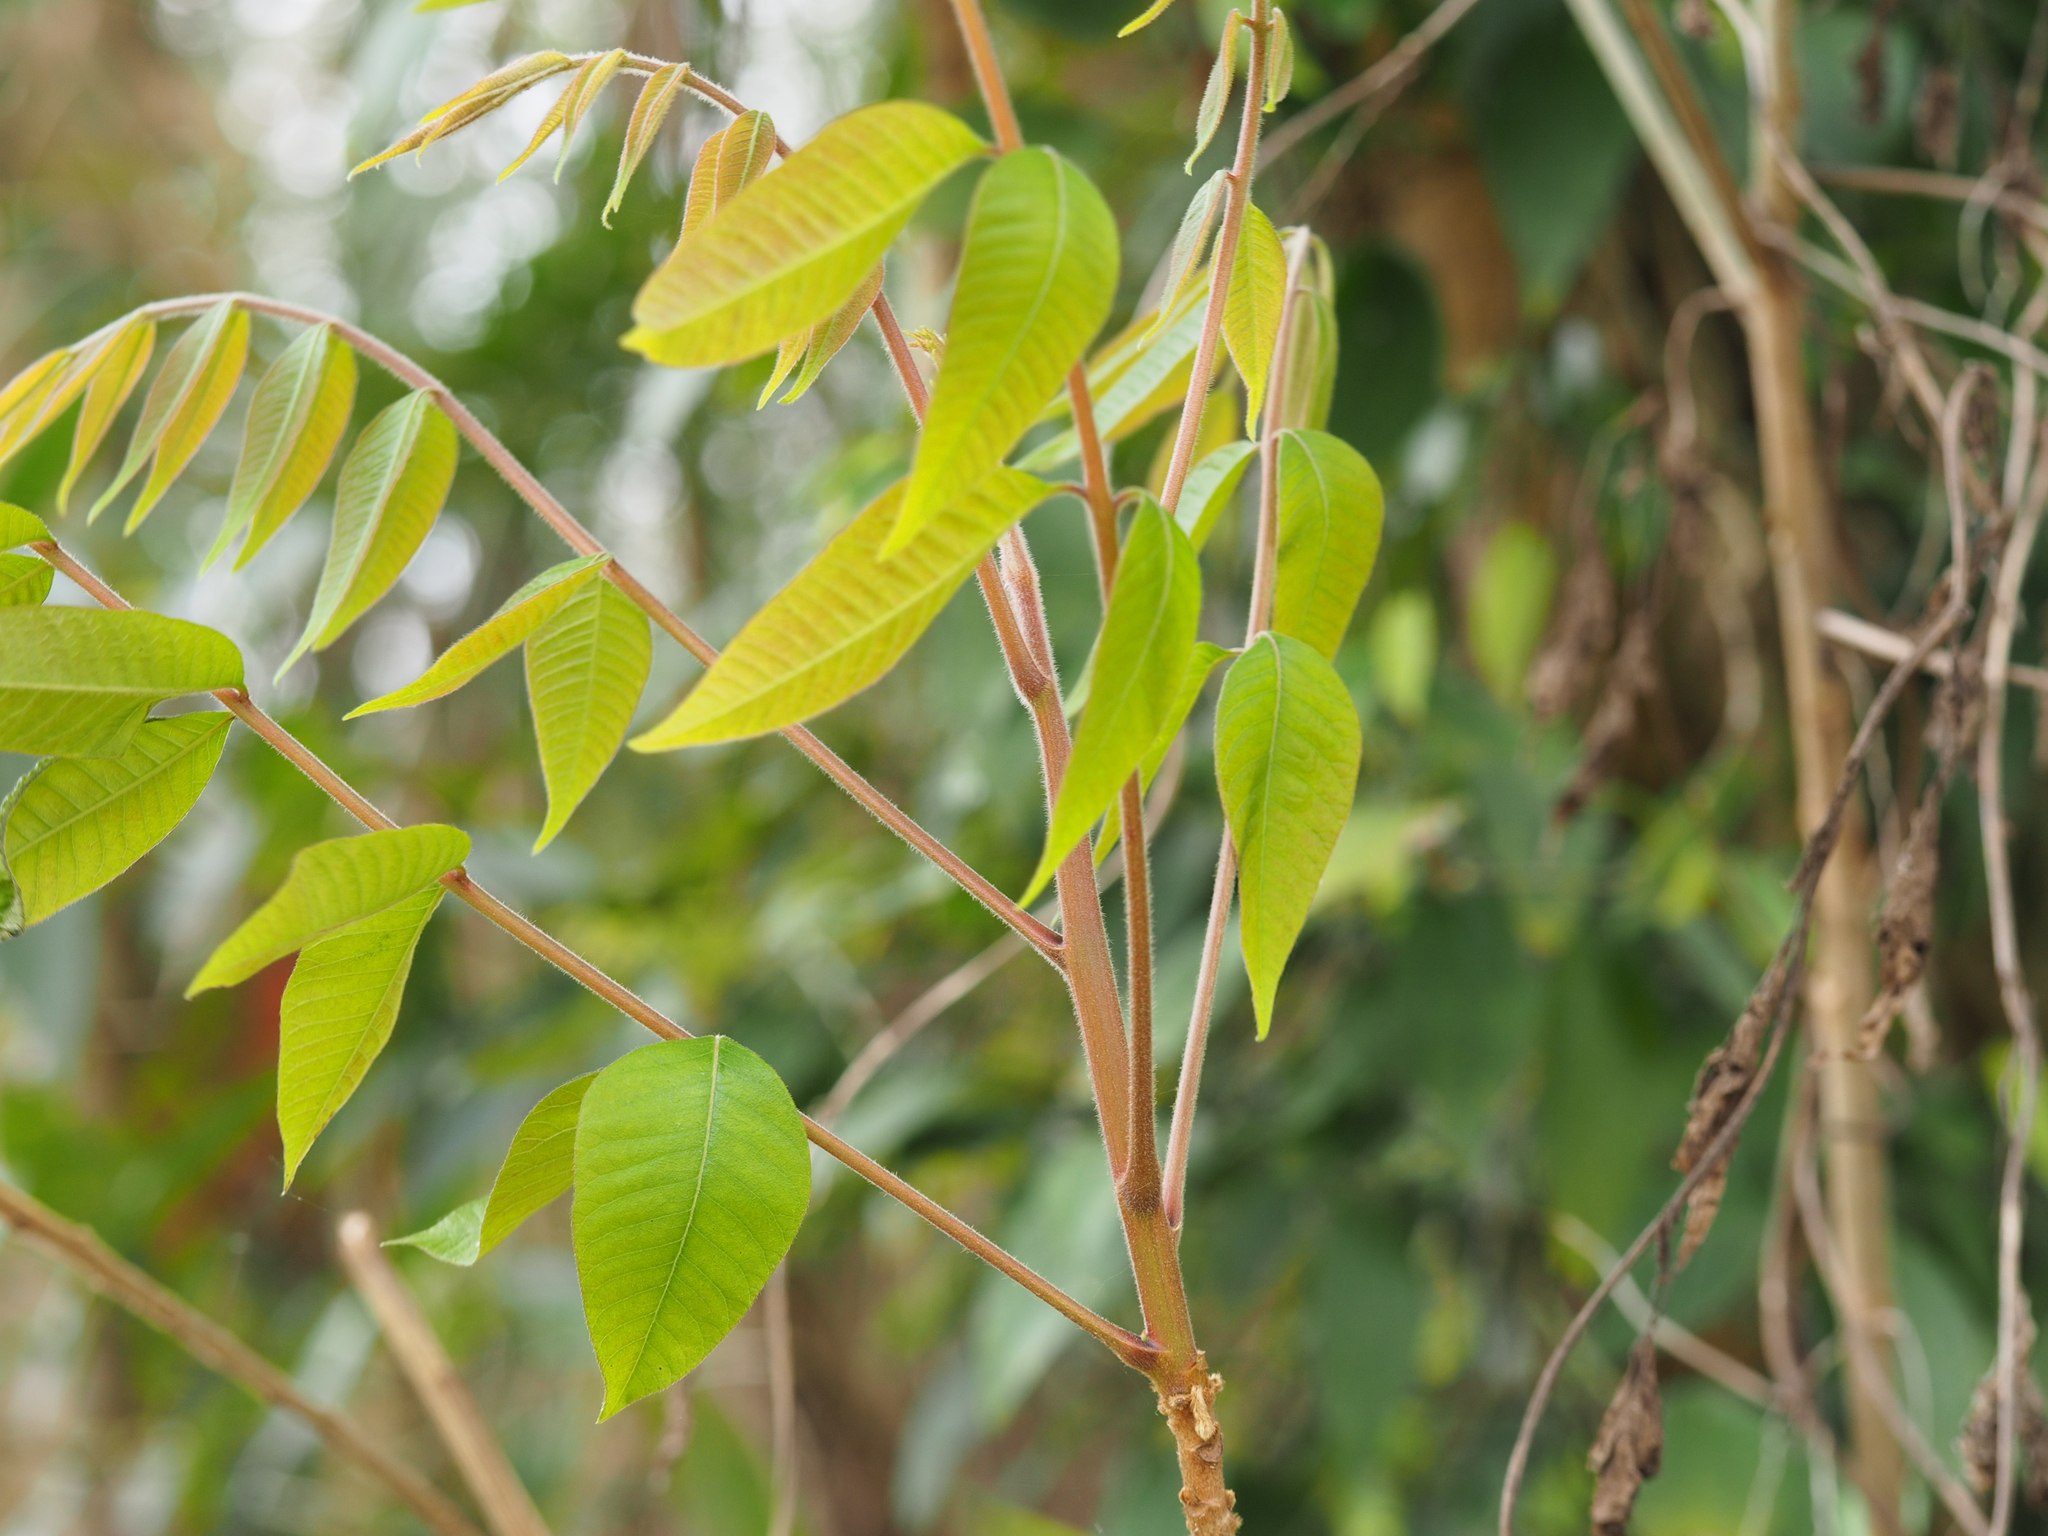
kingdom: Plantae
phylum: Tracheophyta
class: Magnoliopsida
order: Sapindales
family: Anacardiaceae
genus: Toxicodendron
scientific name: Toxicodendron sylvestre
